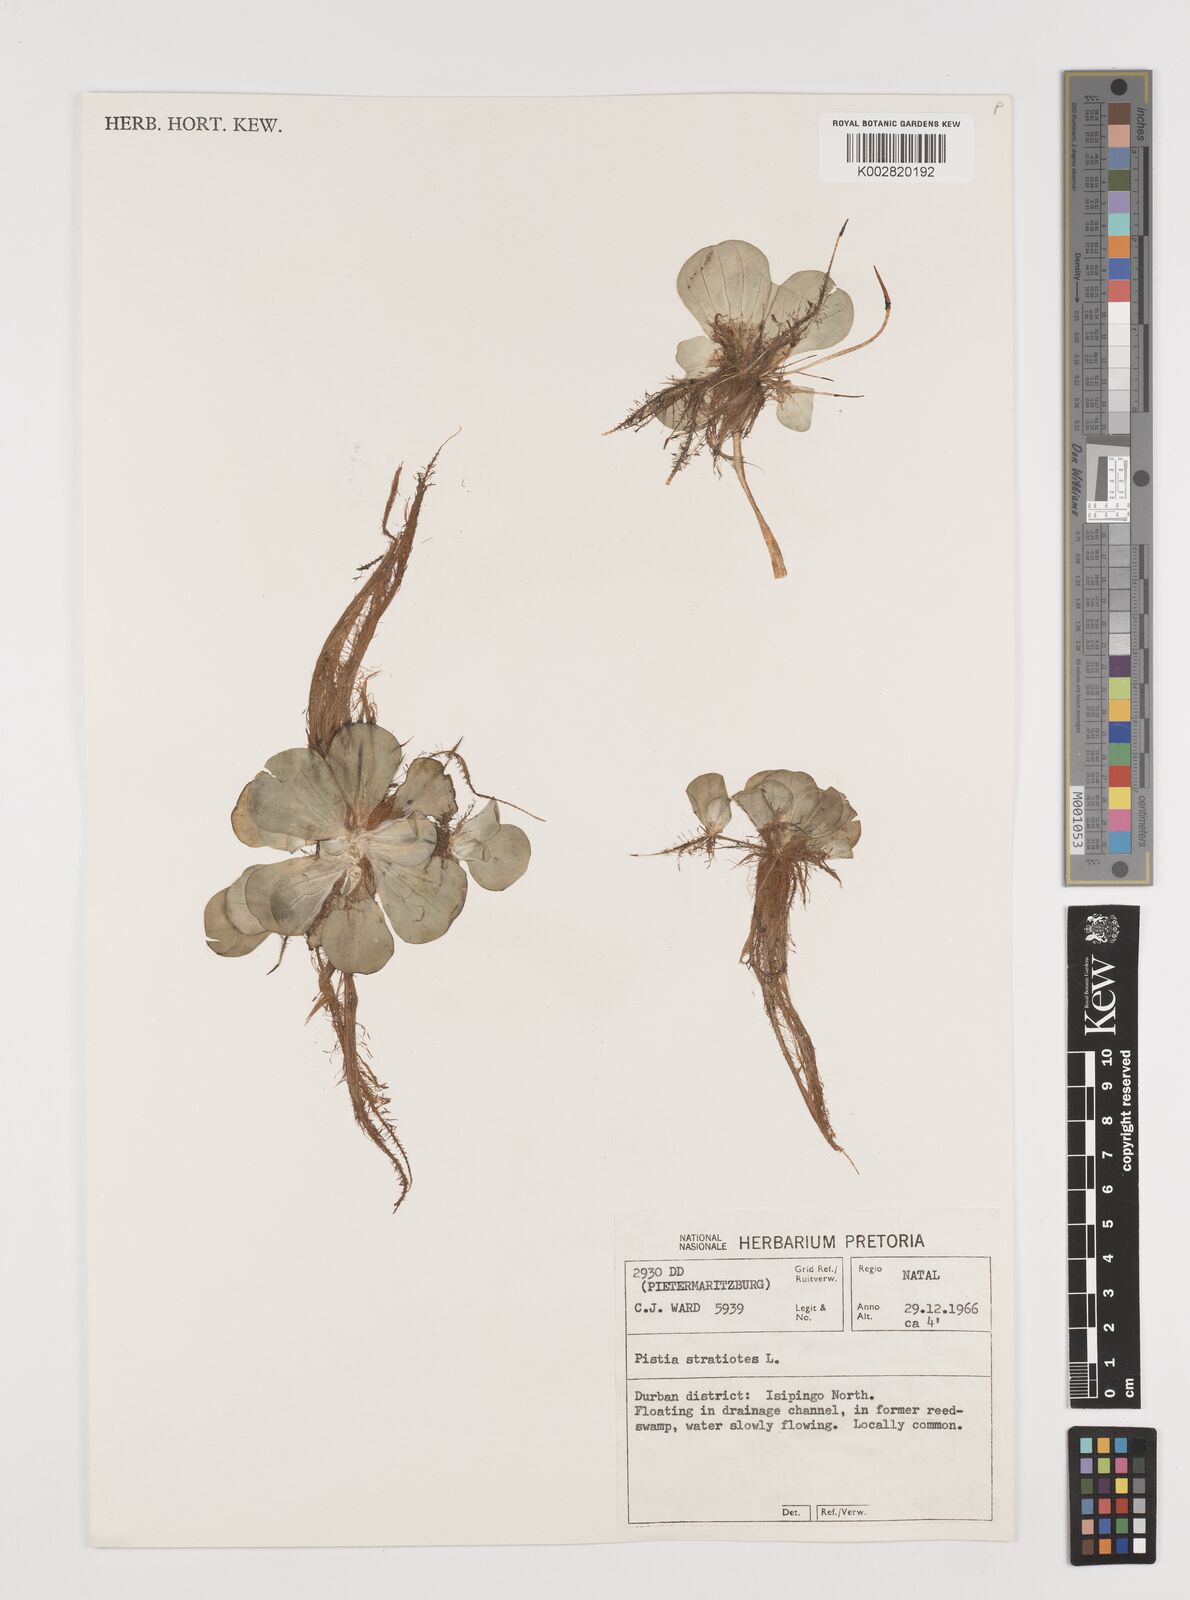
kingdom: Plantae
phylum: Tracheophyta
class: Liliopsida
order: Alismatales
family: Araceae
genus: Pistia
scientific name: Pistia stratiotes
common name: Water lettuce
